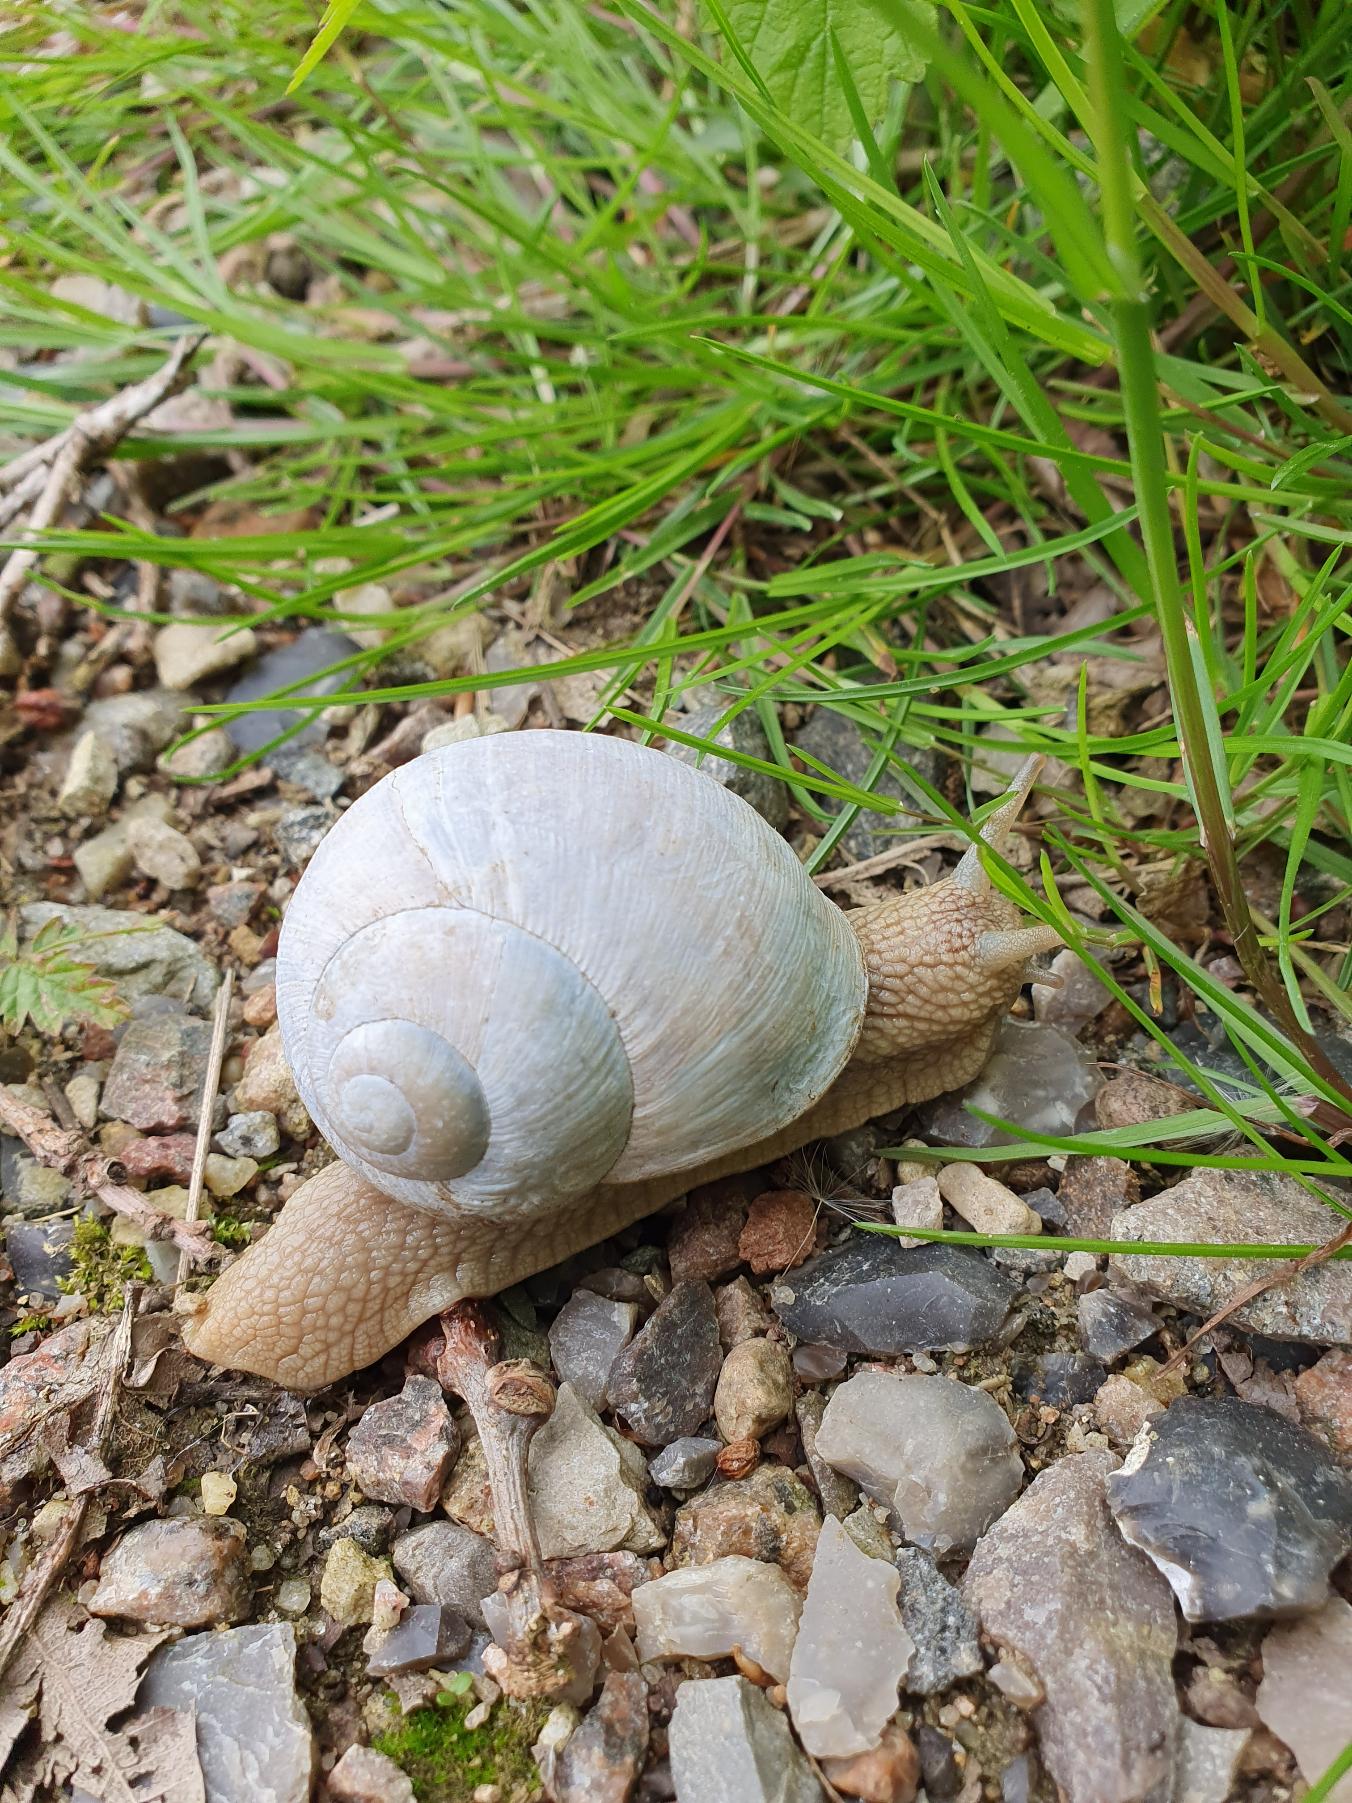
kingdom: Animalia
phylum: Mollusca
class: Gastropoda
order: Stylommatophora
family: Helicidae
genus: Helix
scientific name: Helix pomatia
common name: Vinbjergsnegl
